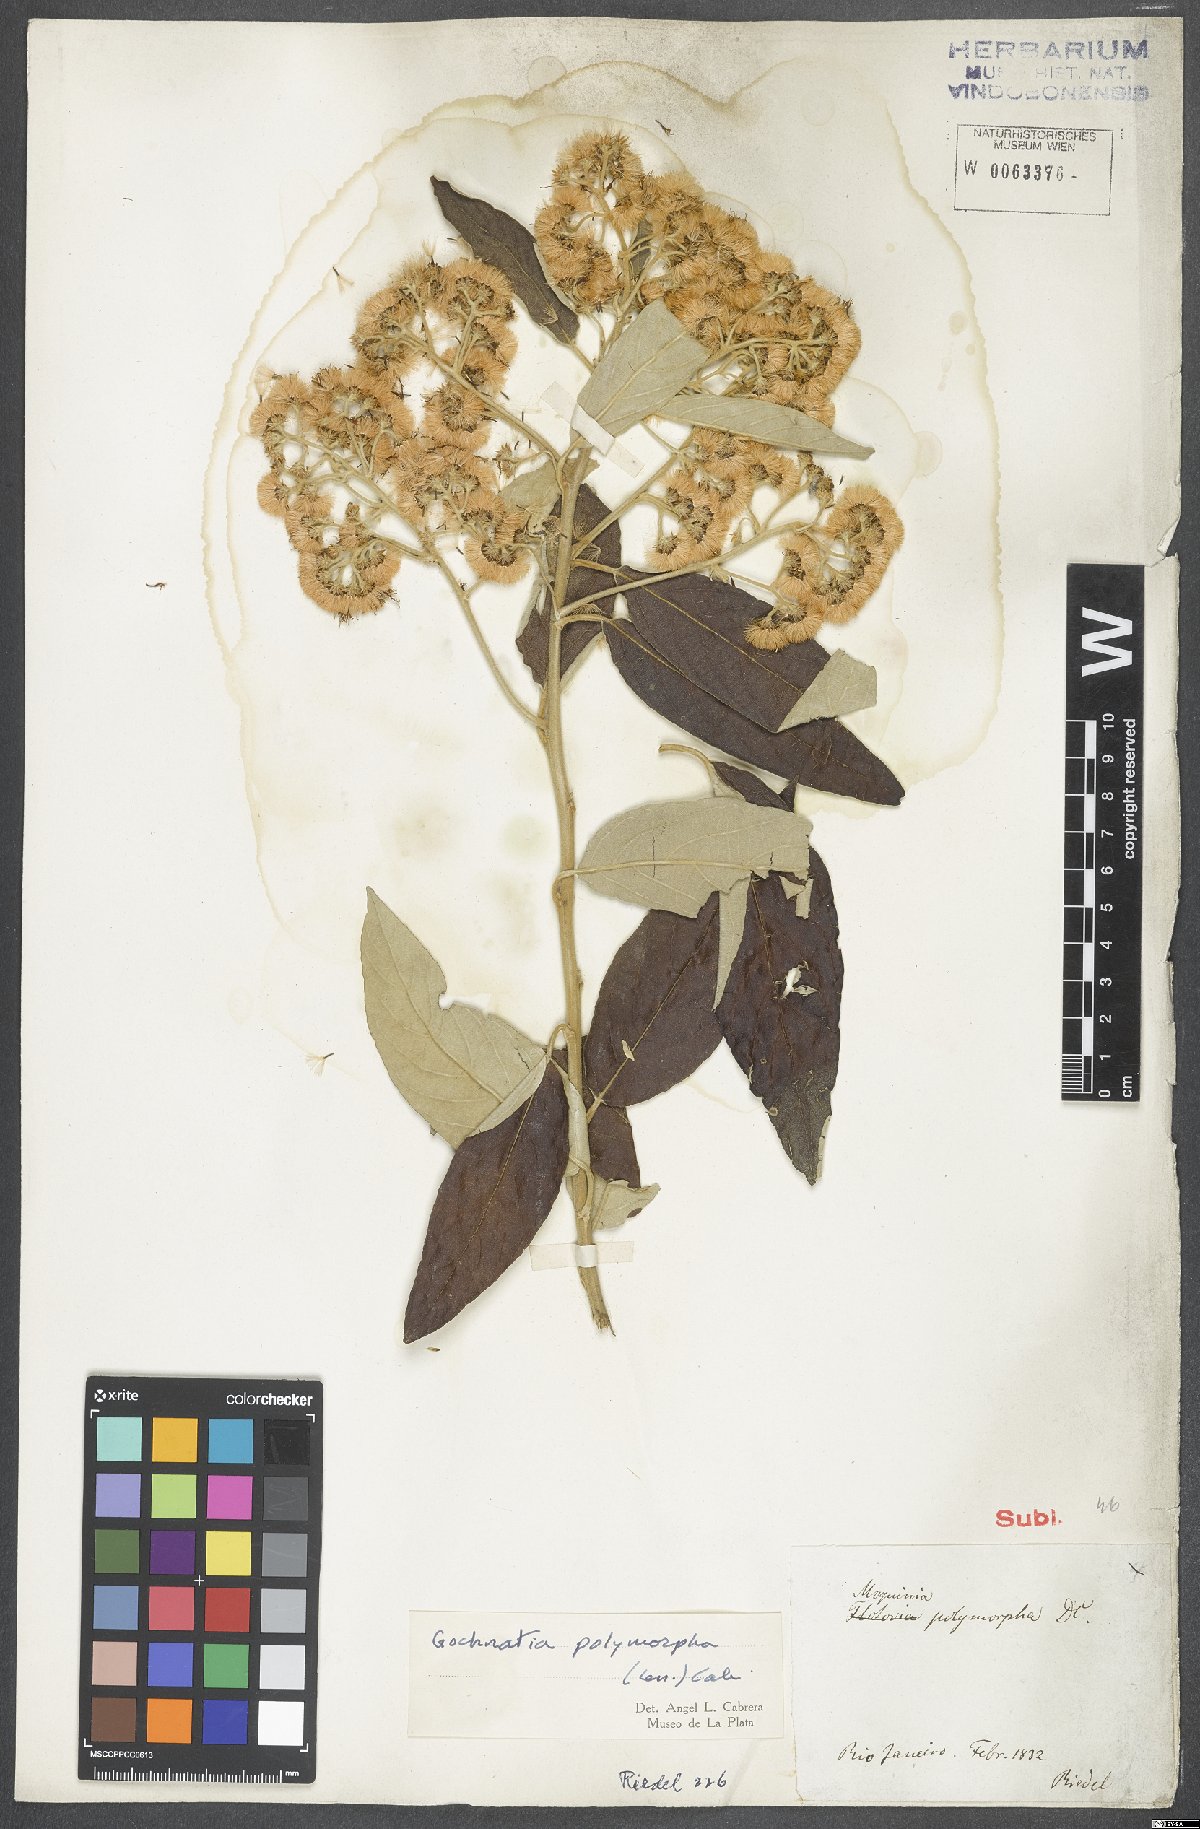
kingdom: Plantae
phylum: Tracheophyta
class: Magnoliopsida
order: Asterales
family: Asteraceae
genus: Moquiniastrum
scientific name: Moquiniastrum polymorphum
